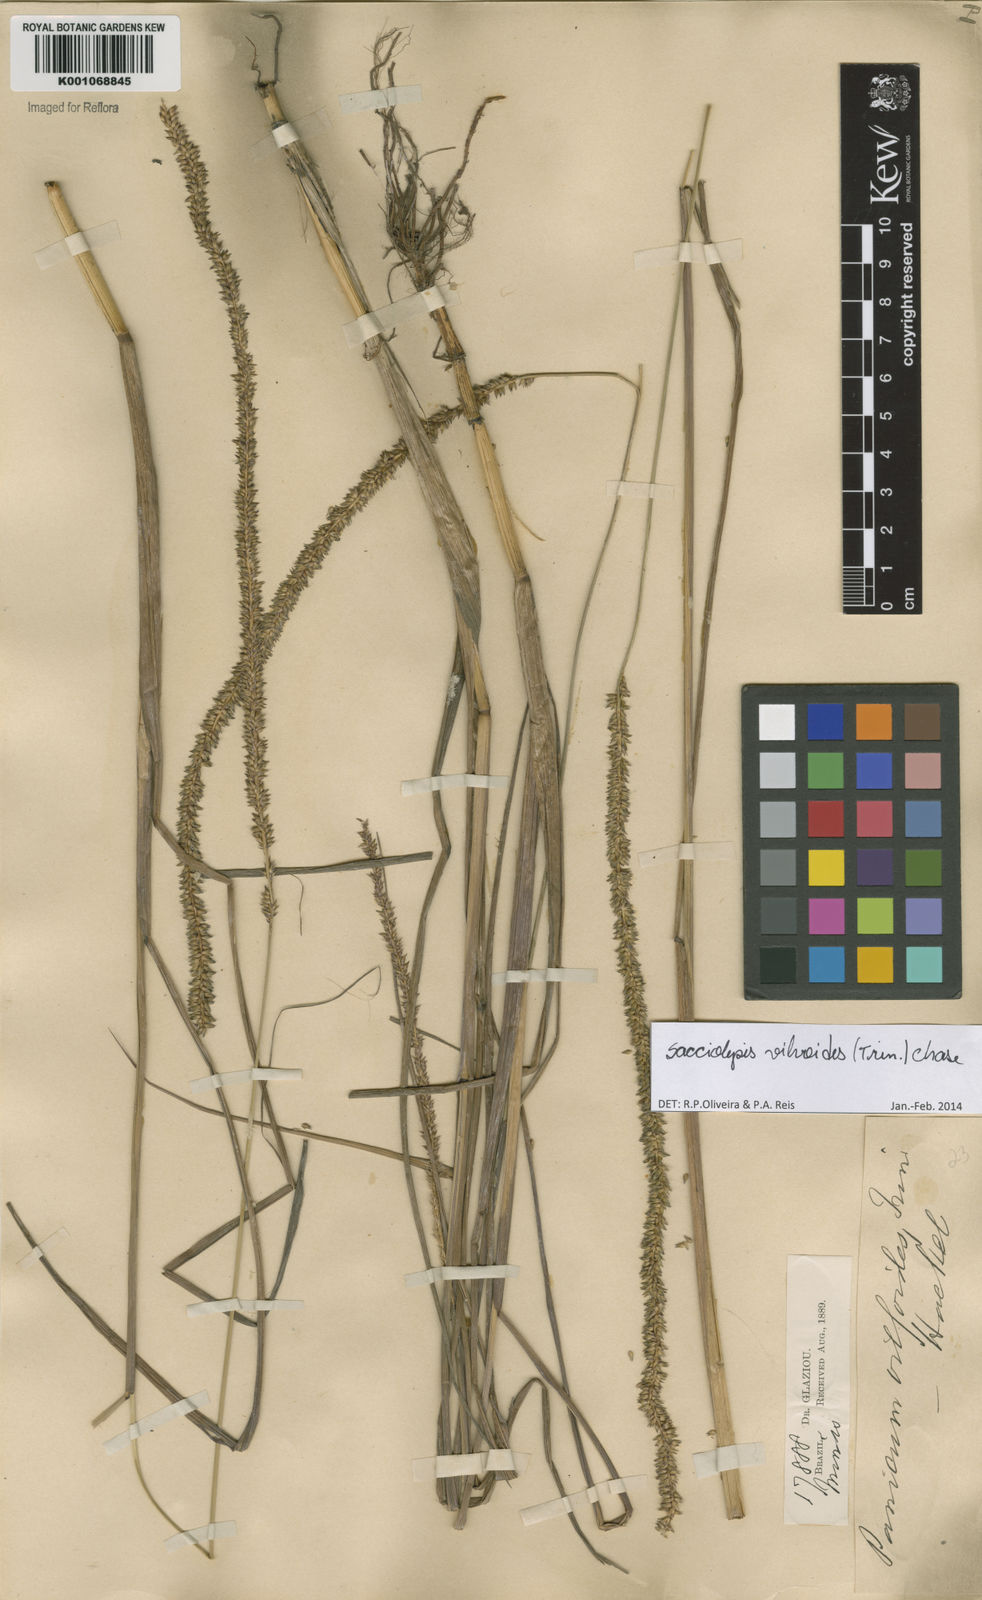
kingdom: Plantae
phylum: Tracheophyta
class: Liliopsida
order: Poales
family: Poaceae
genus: Sacciolepis
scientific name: Sacciolepis vilvoides
